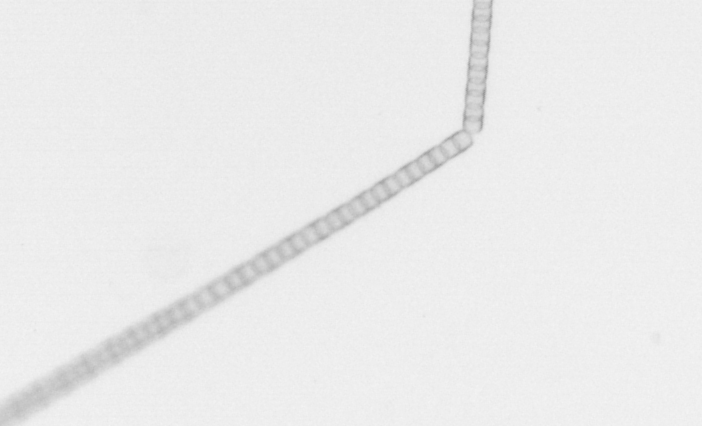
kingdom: Chromista
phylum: Ochrophyta
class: Bacillariophyceae
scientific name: Bacillariophyceae
